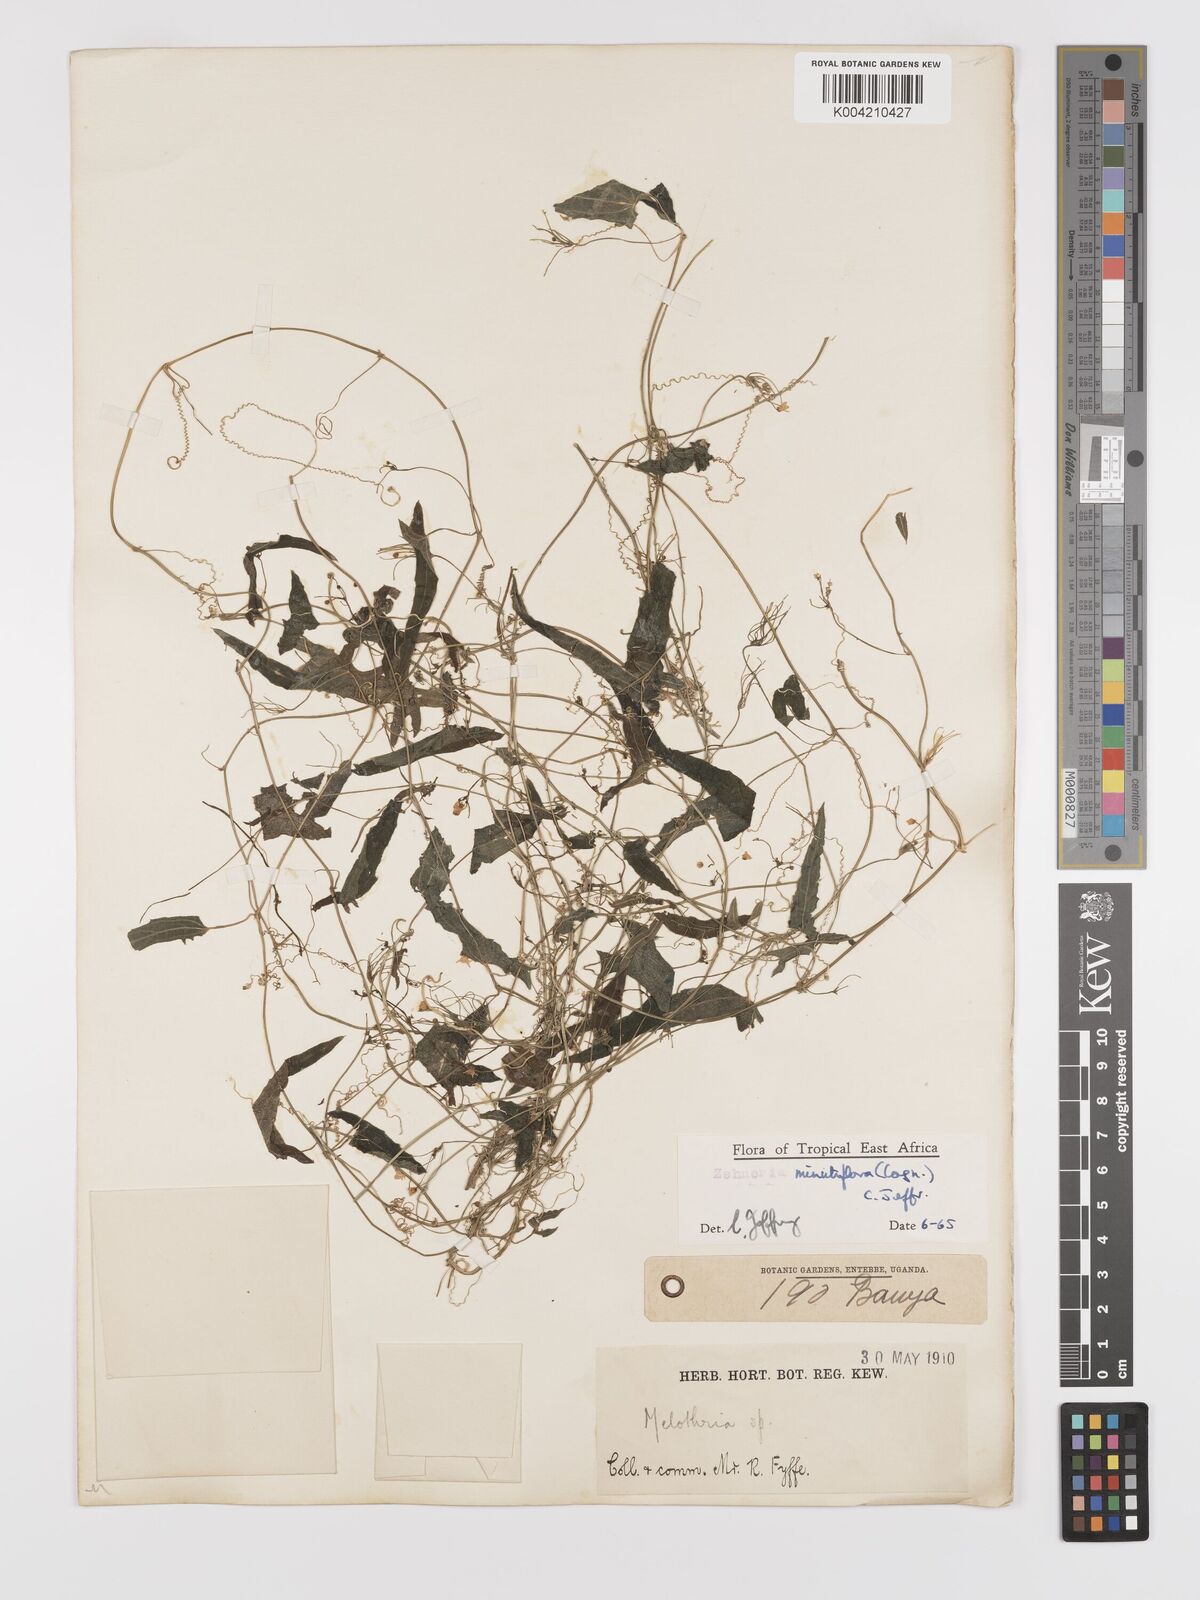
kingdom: Plantae
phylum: Tracheophyta
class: Magnoliopsida
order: Cucurbitales
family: Cucurbitaceae
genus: Zehneria
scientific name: Zehneria minutiflora
